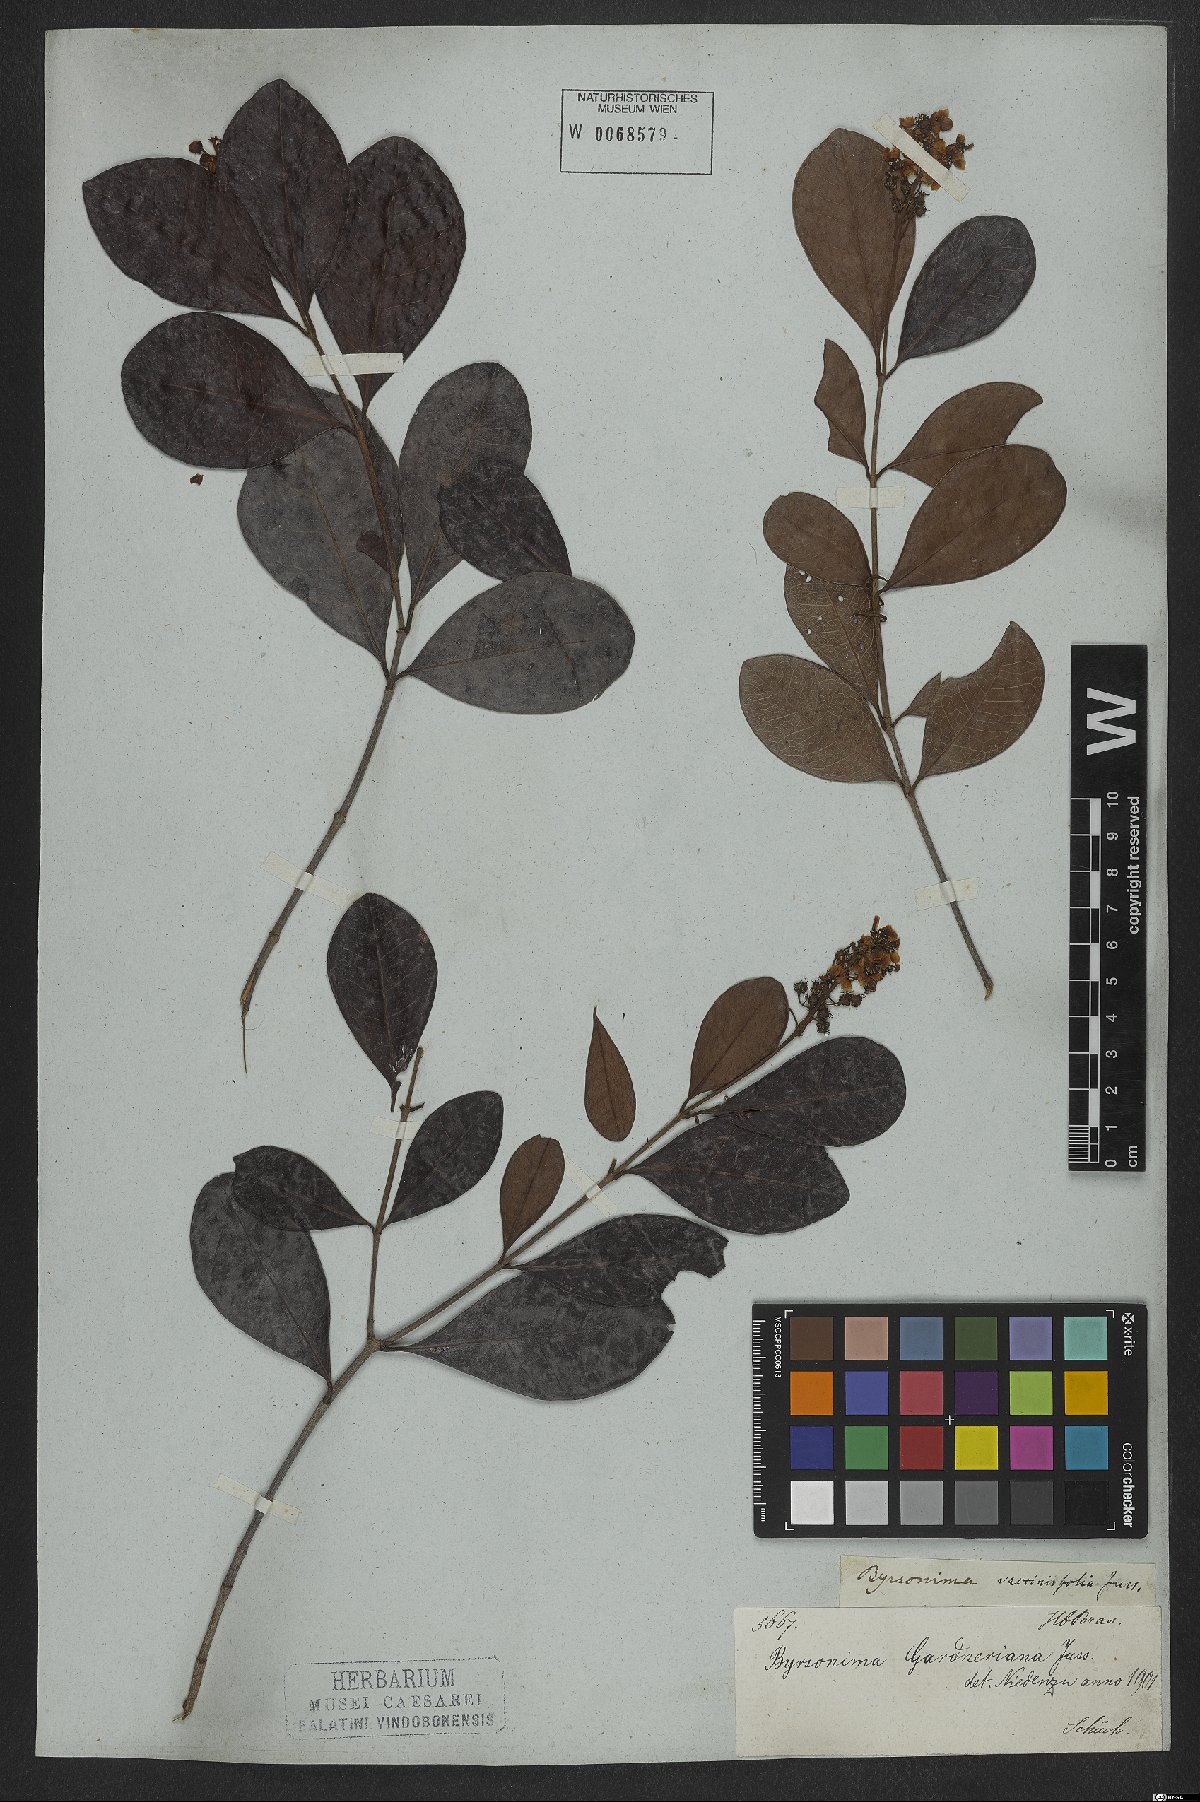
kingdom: Plantae
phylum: Tracheophyta
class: Magnoliopsida
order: Malpighiales
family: Malpighiaceae
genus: Byrsonima
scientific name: Byrsonima gardneriana
